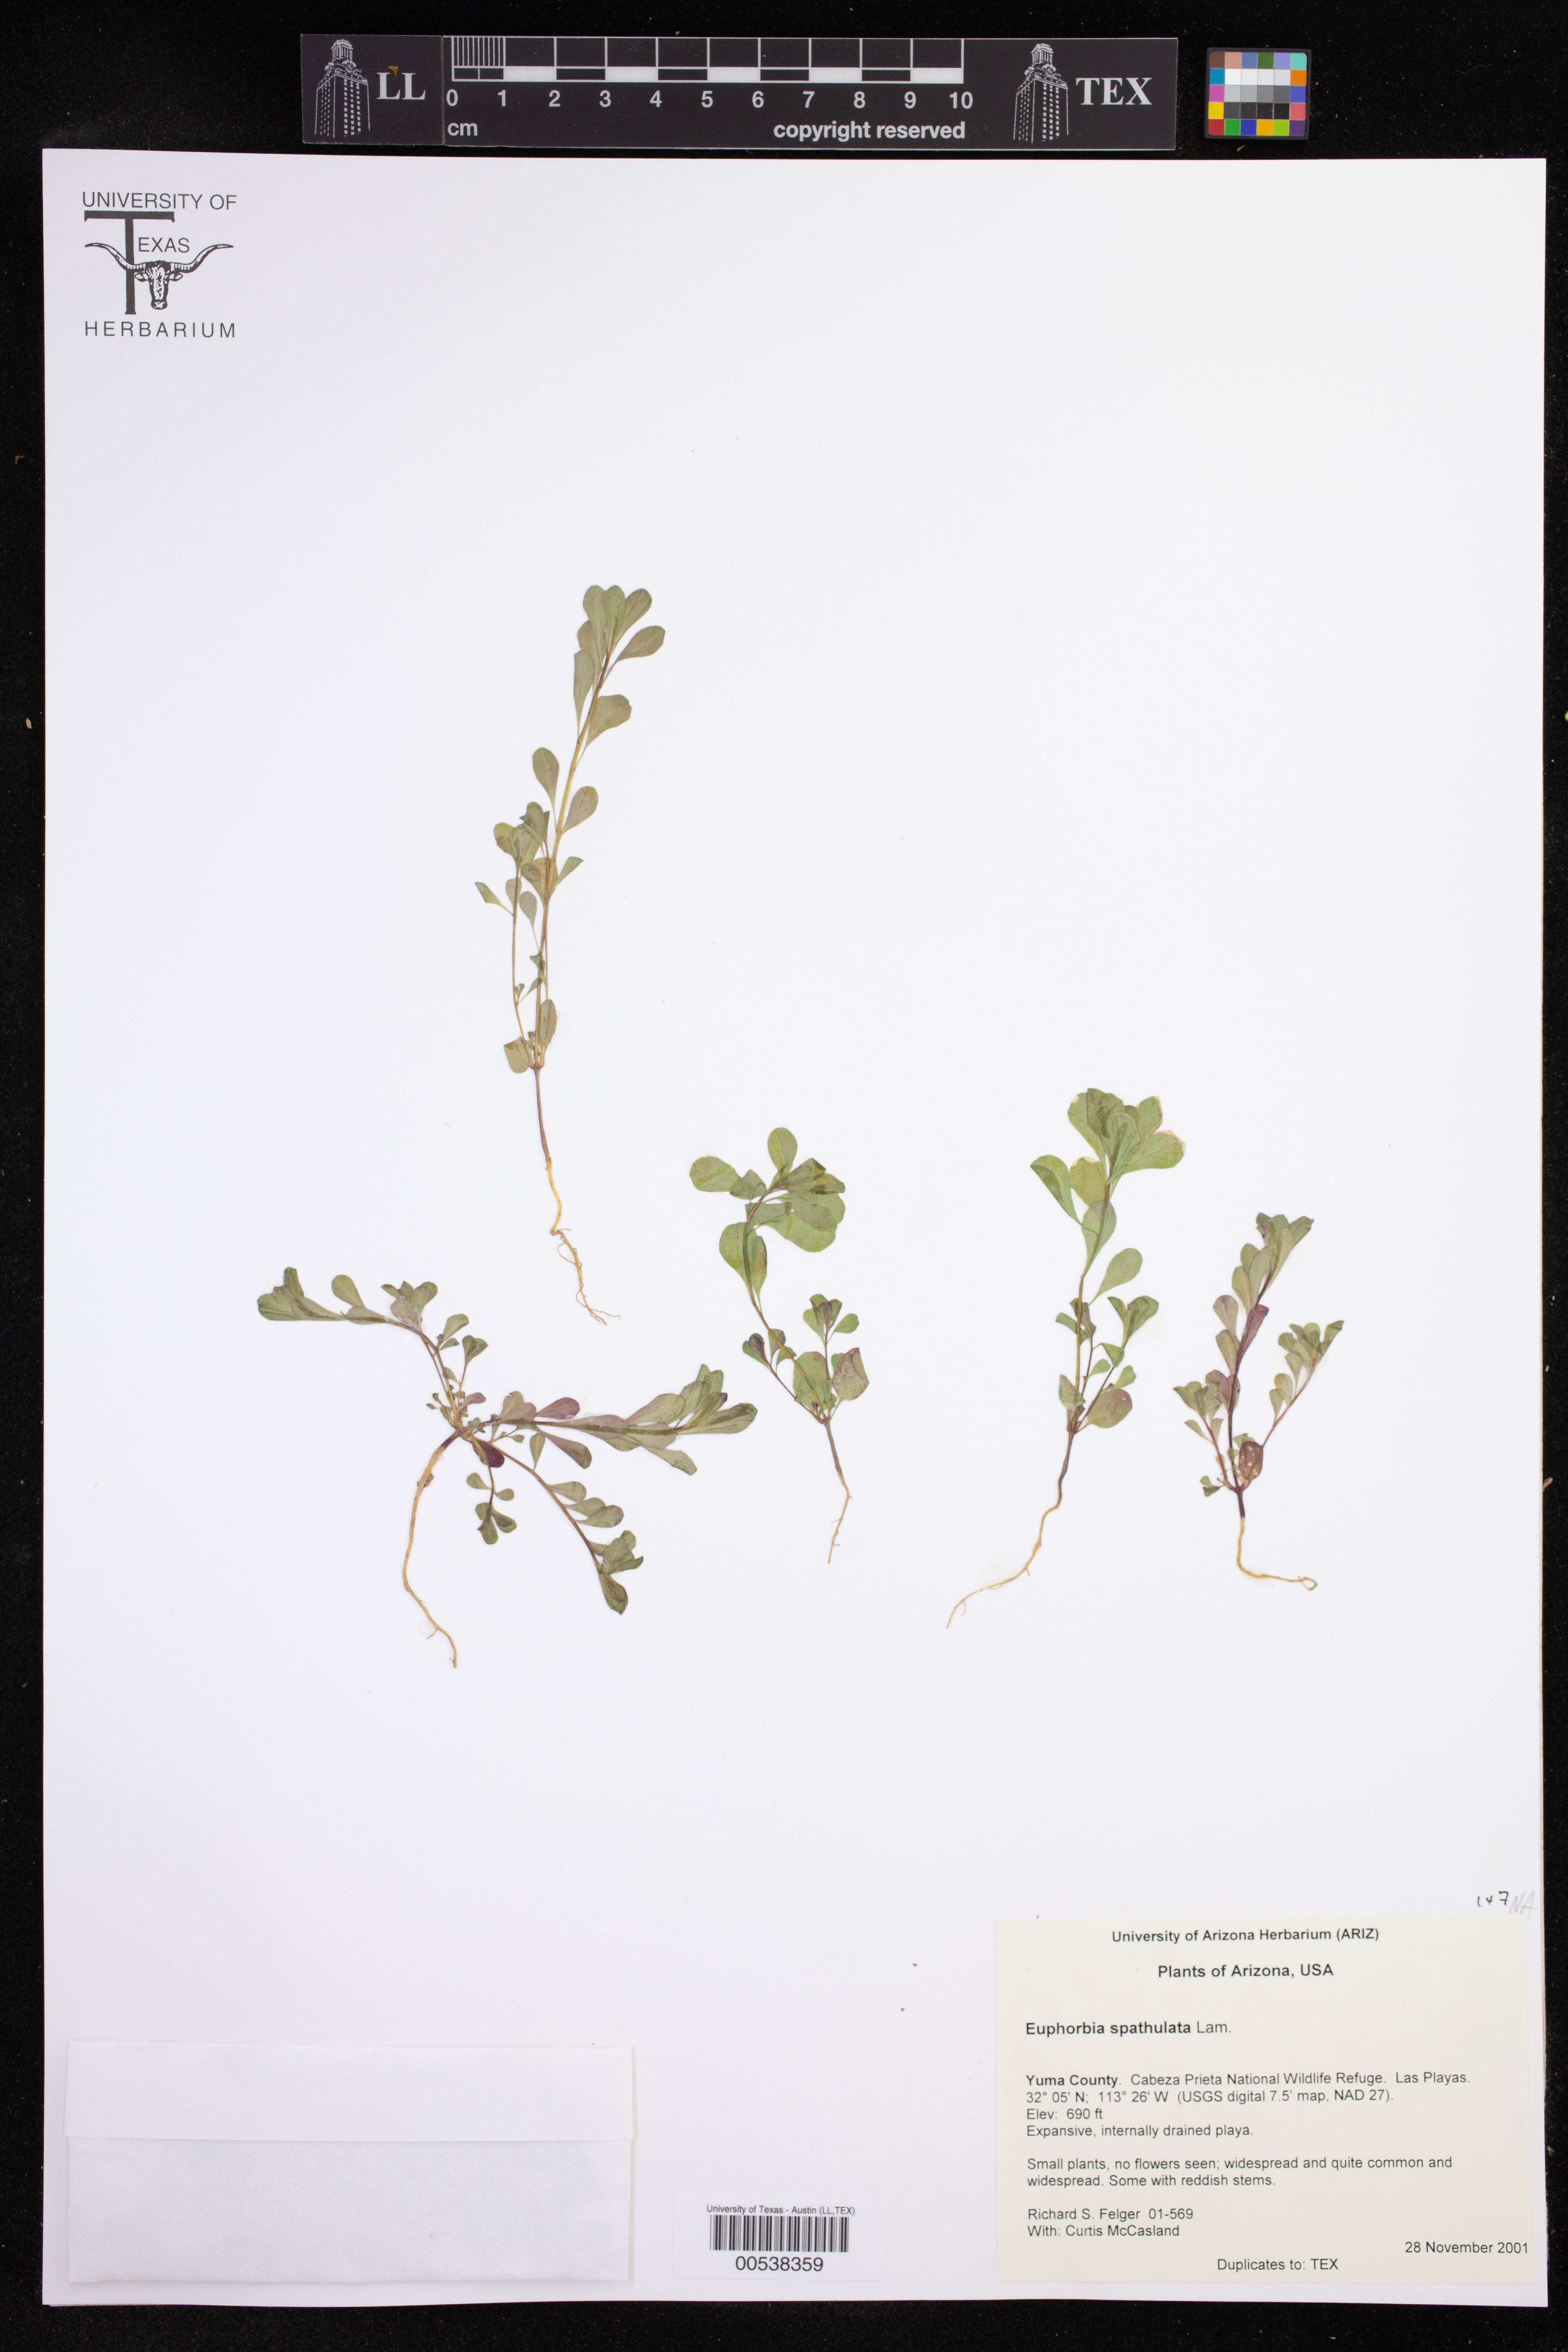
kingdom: Plantae
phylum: Tracheophyta
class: Magnoliopsida
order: Malpighiales
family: Euphorbiaceae
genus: Euphorbia
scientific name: Euphorbia spathulata
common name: Blunt spurge
